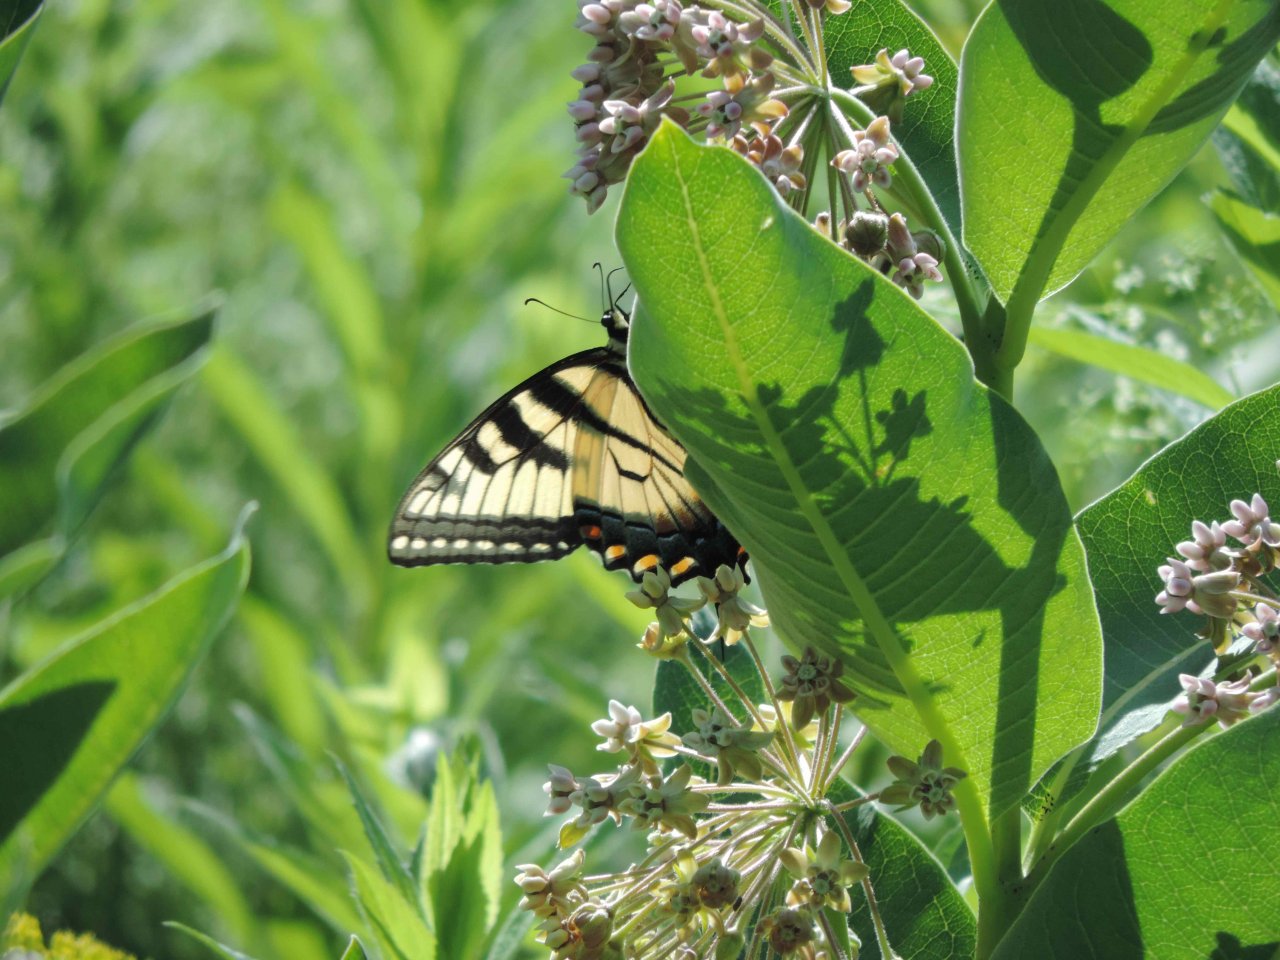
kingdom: Animalia
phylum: Arthropoda
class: Insecta
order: Lepidoptera
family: Papilionidae
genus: Pterourus
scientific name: Pterourus glaucus
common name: Eastern Tiger Swallowtail
